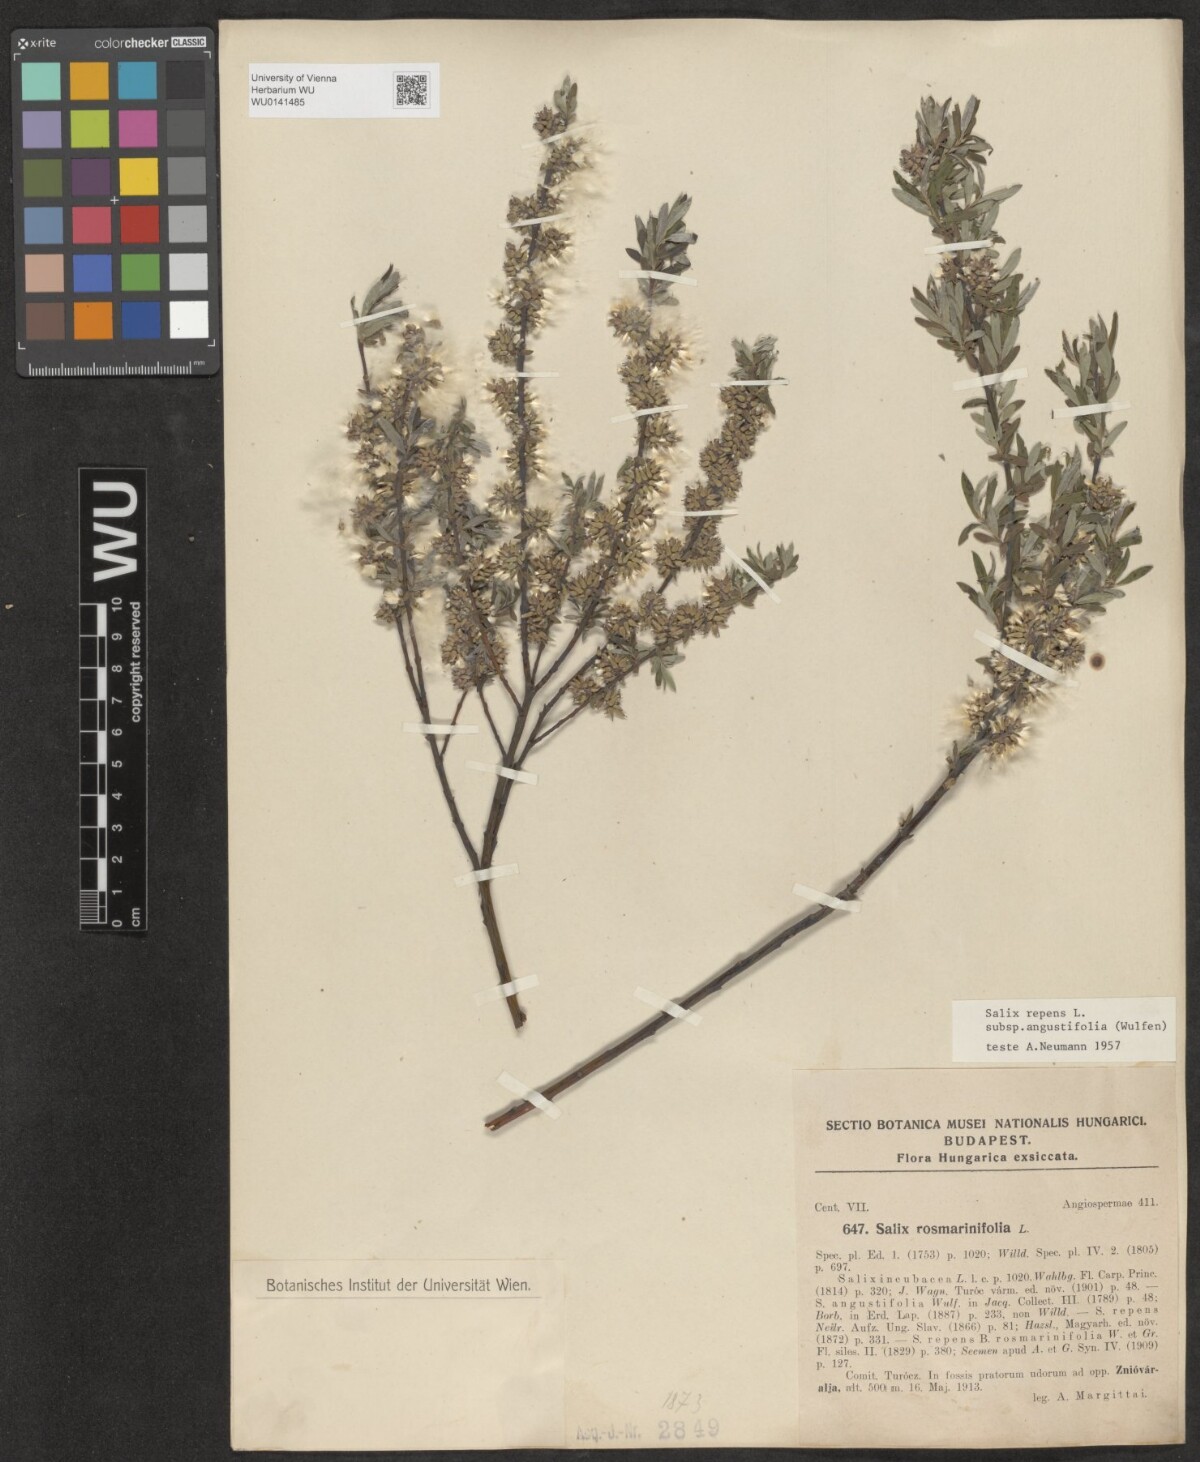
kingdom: Plantae
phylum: Tracheophyta
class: Magnoliopsida
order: Malpighiales
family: Salicaceae
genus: Salix
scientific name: Salix rosmarinifolia
